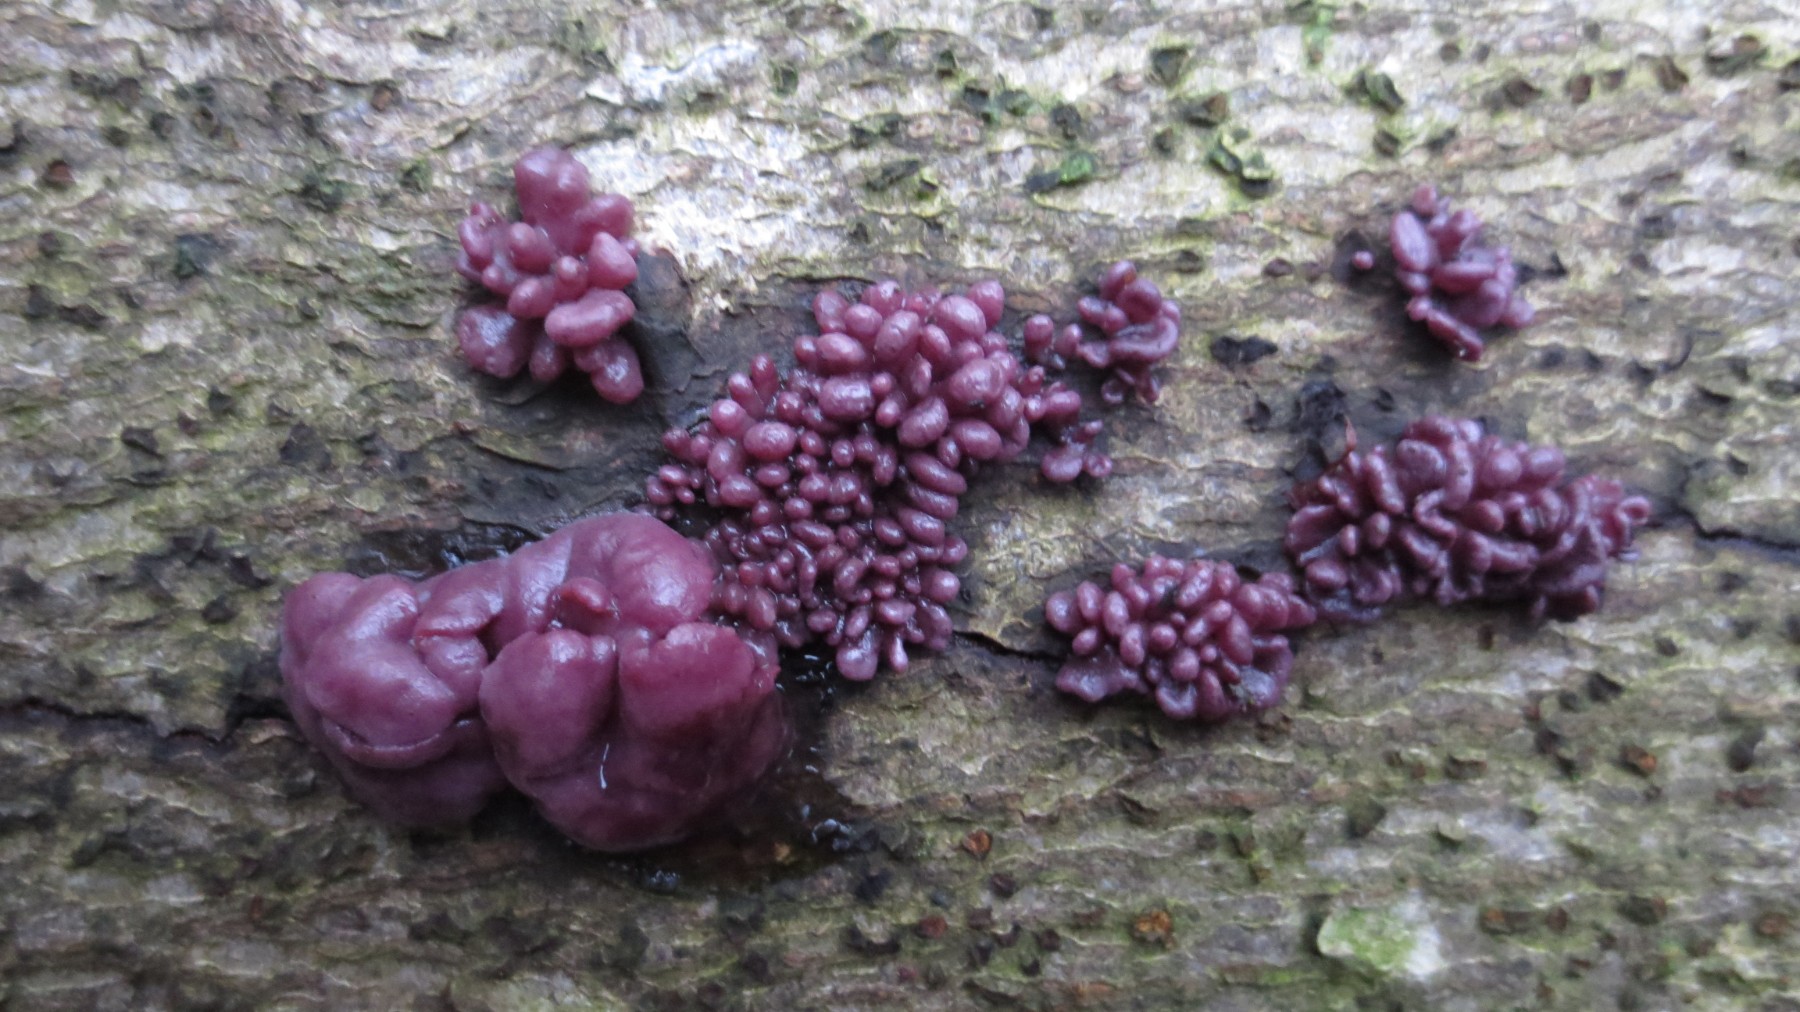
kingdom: Fungi
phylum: Ascomycota
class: Leotiomycetes
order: Helotiales
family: Gelatinodiscaceae
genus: Ascocoryne
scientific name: Ascocoryne sarcoides
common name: rødlilla sejskive
